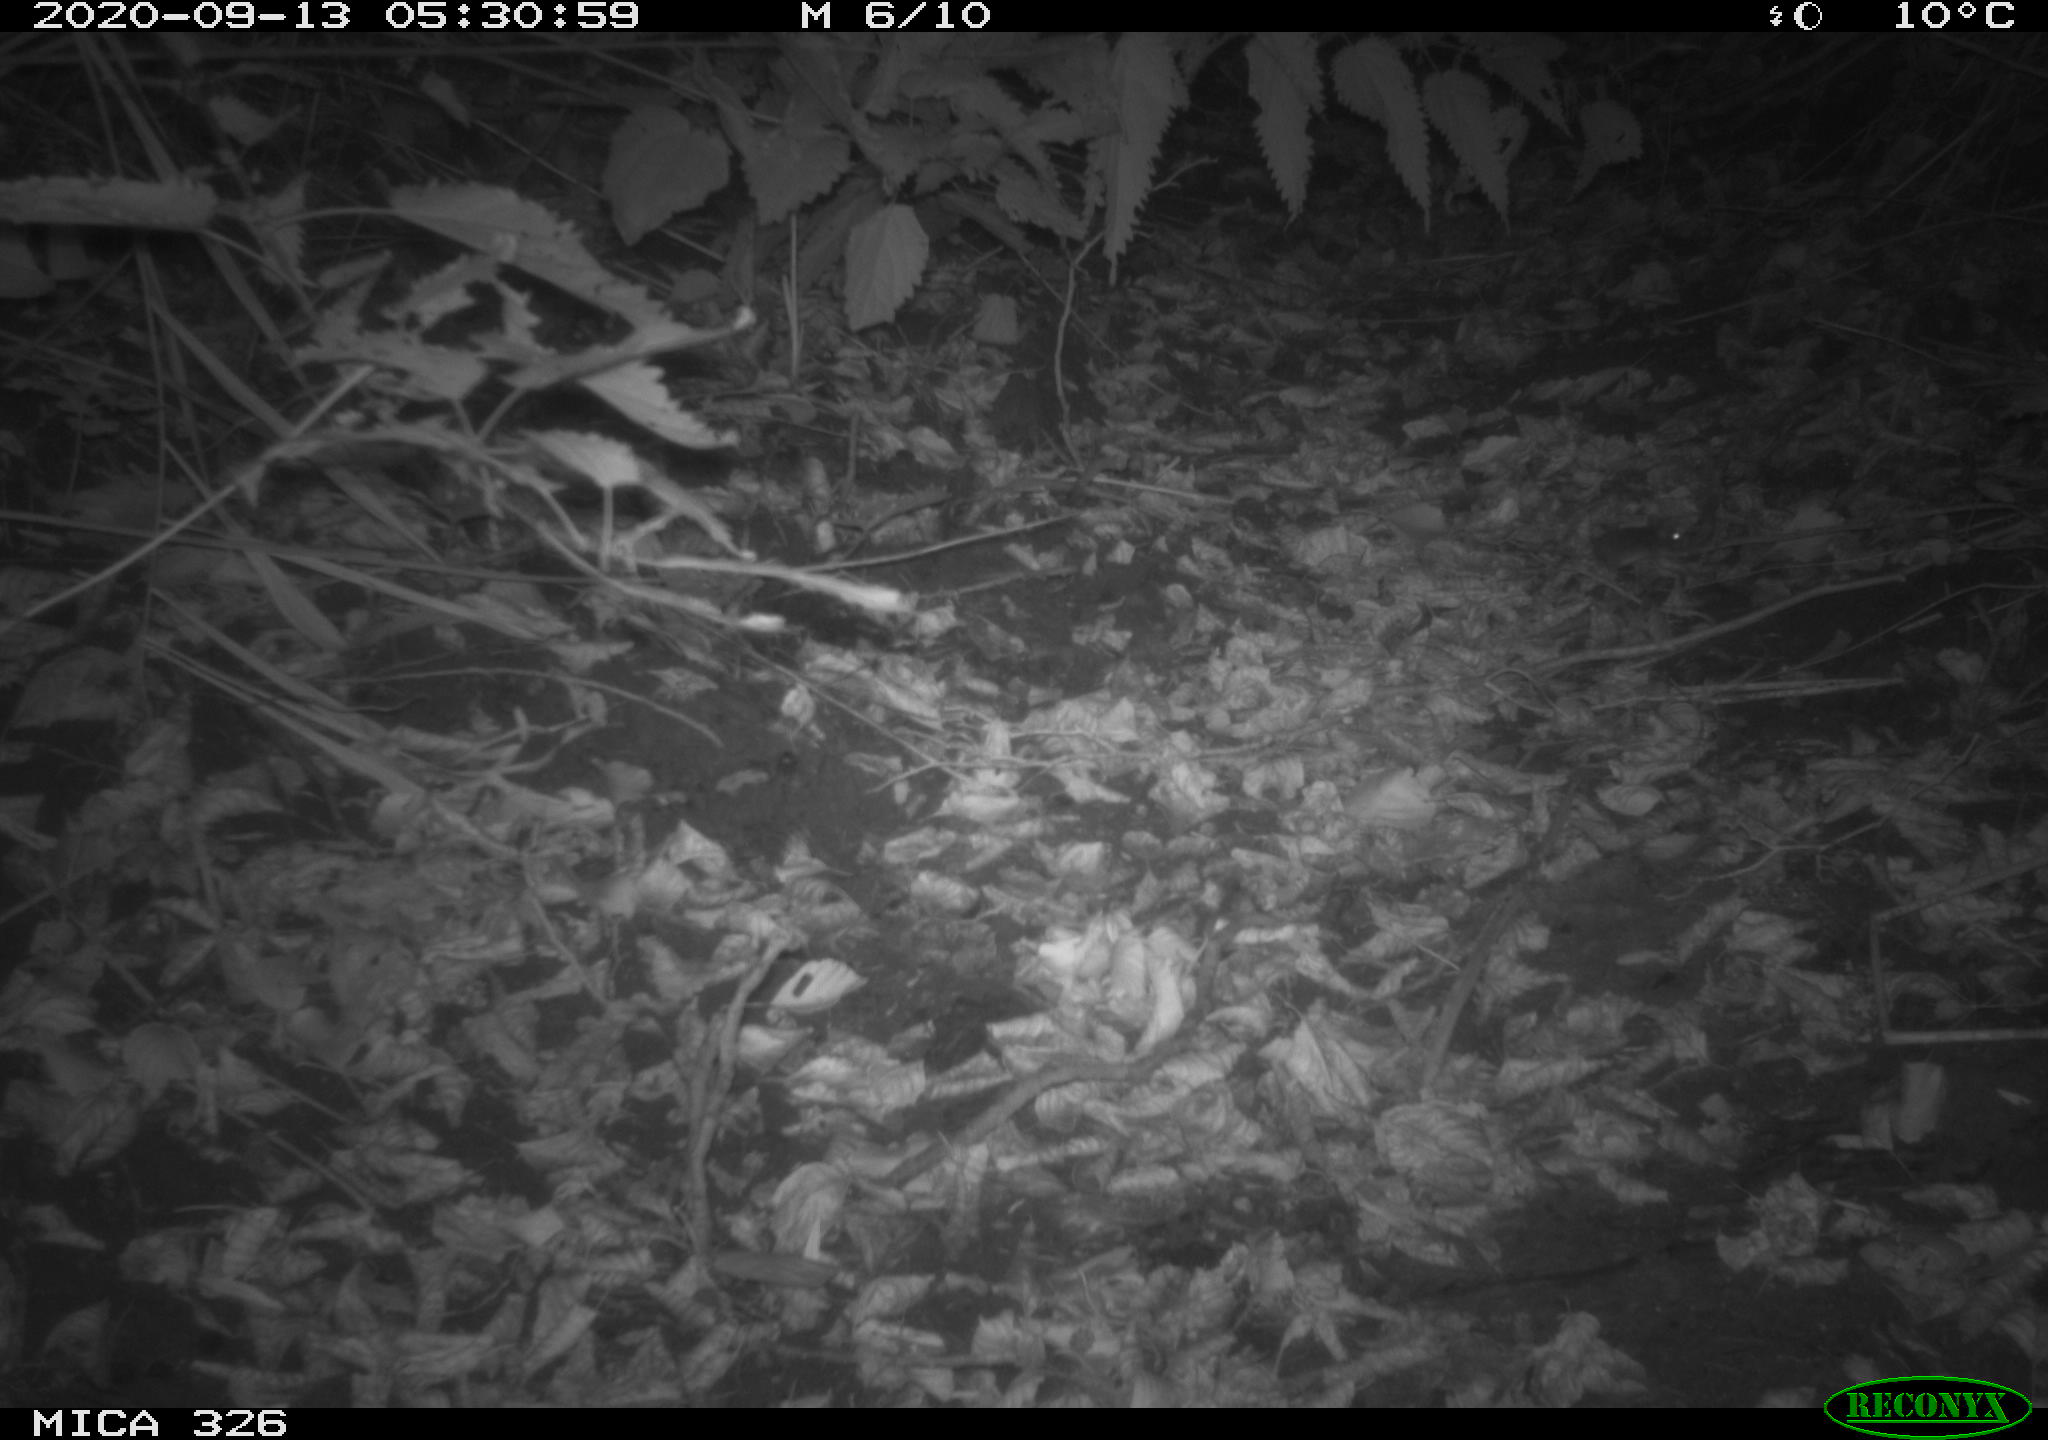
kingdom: Animalia
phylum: Chordata
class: Mammalia
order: Rodentia
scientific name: Rodentia
